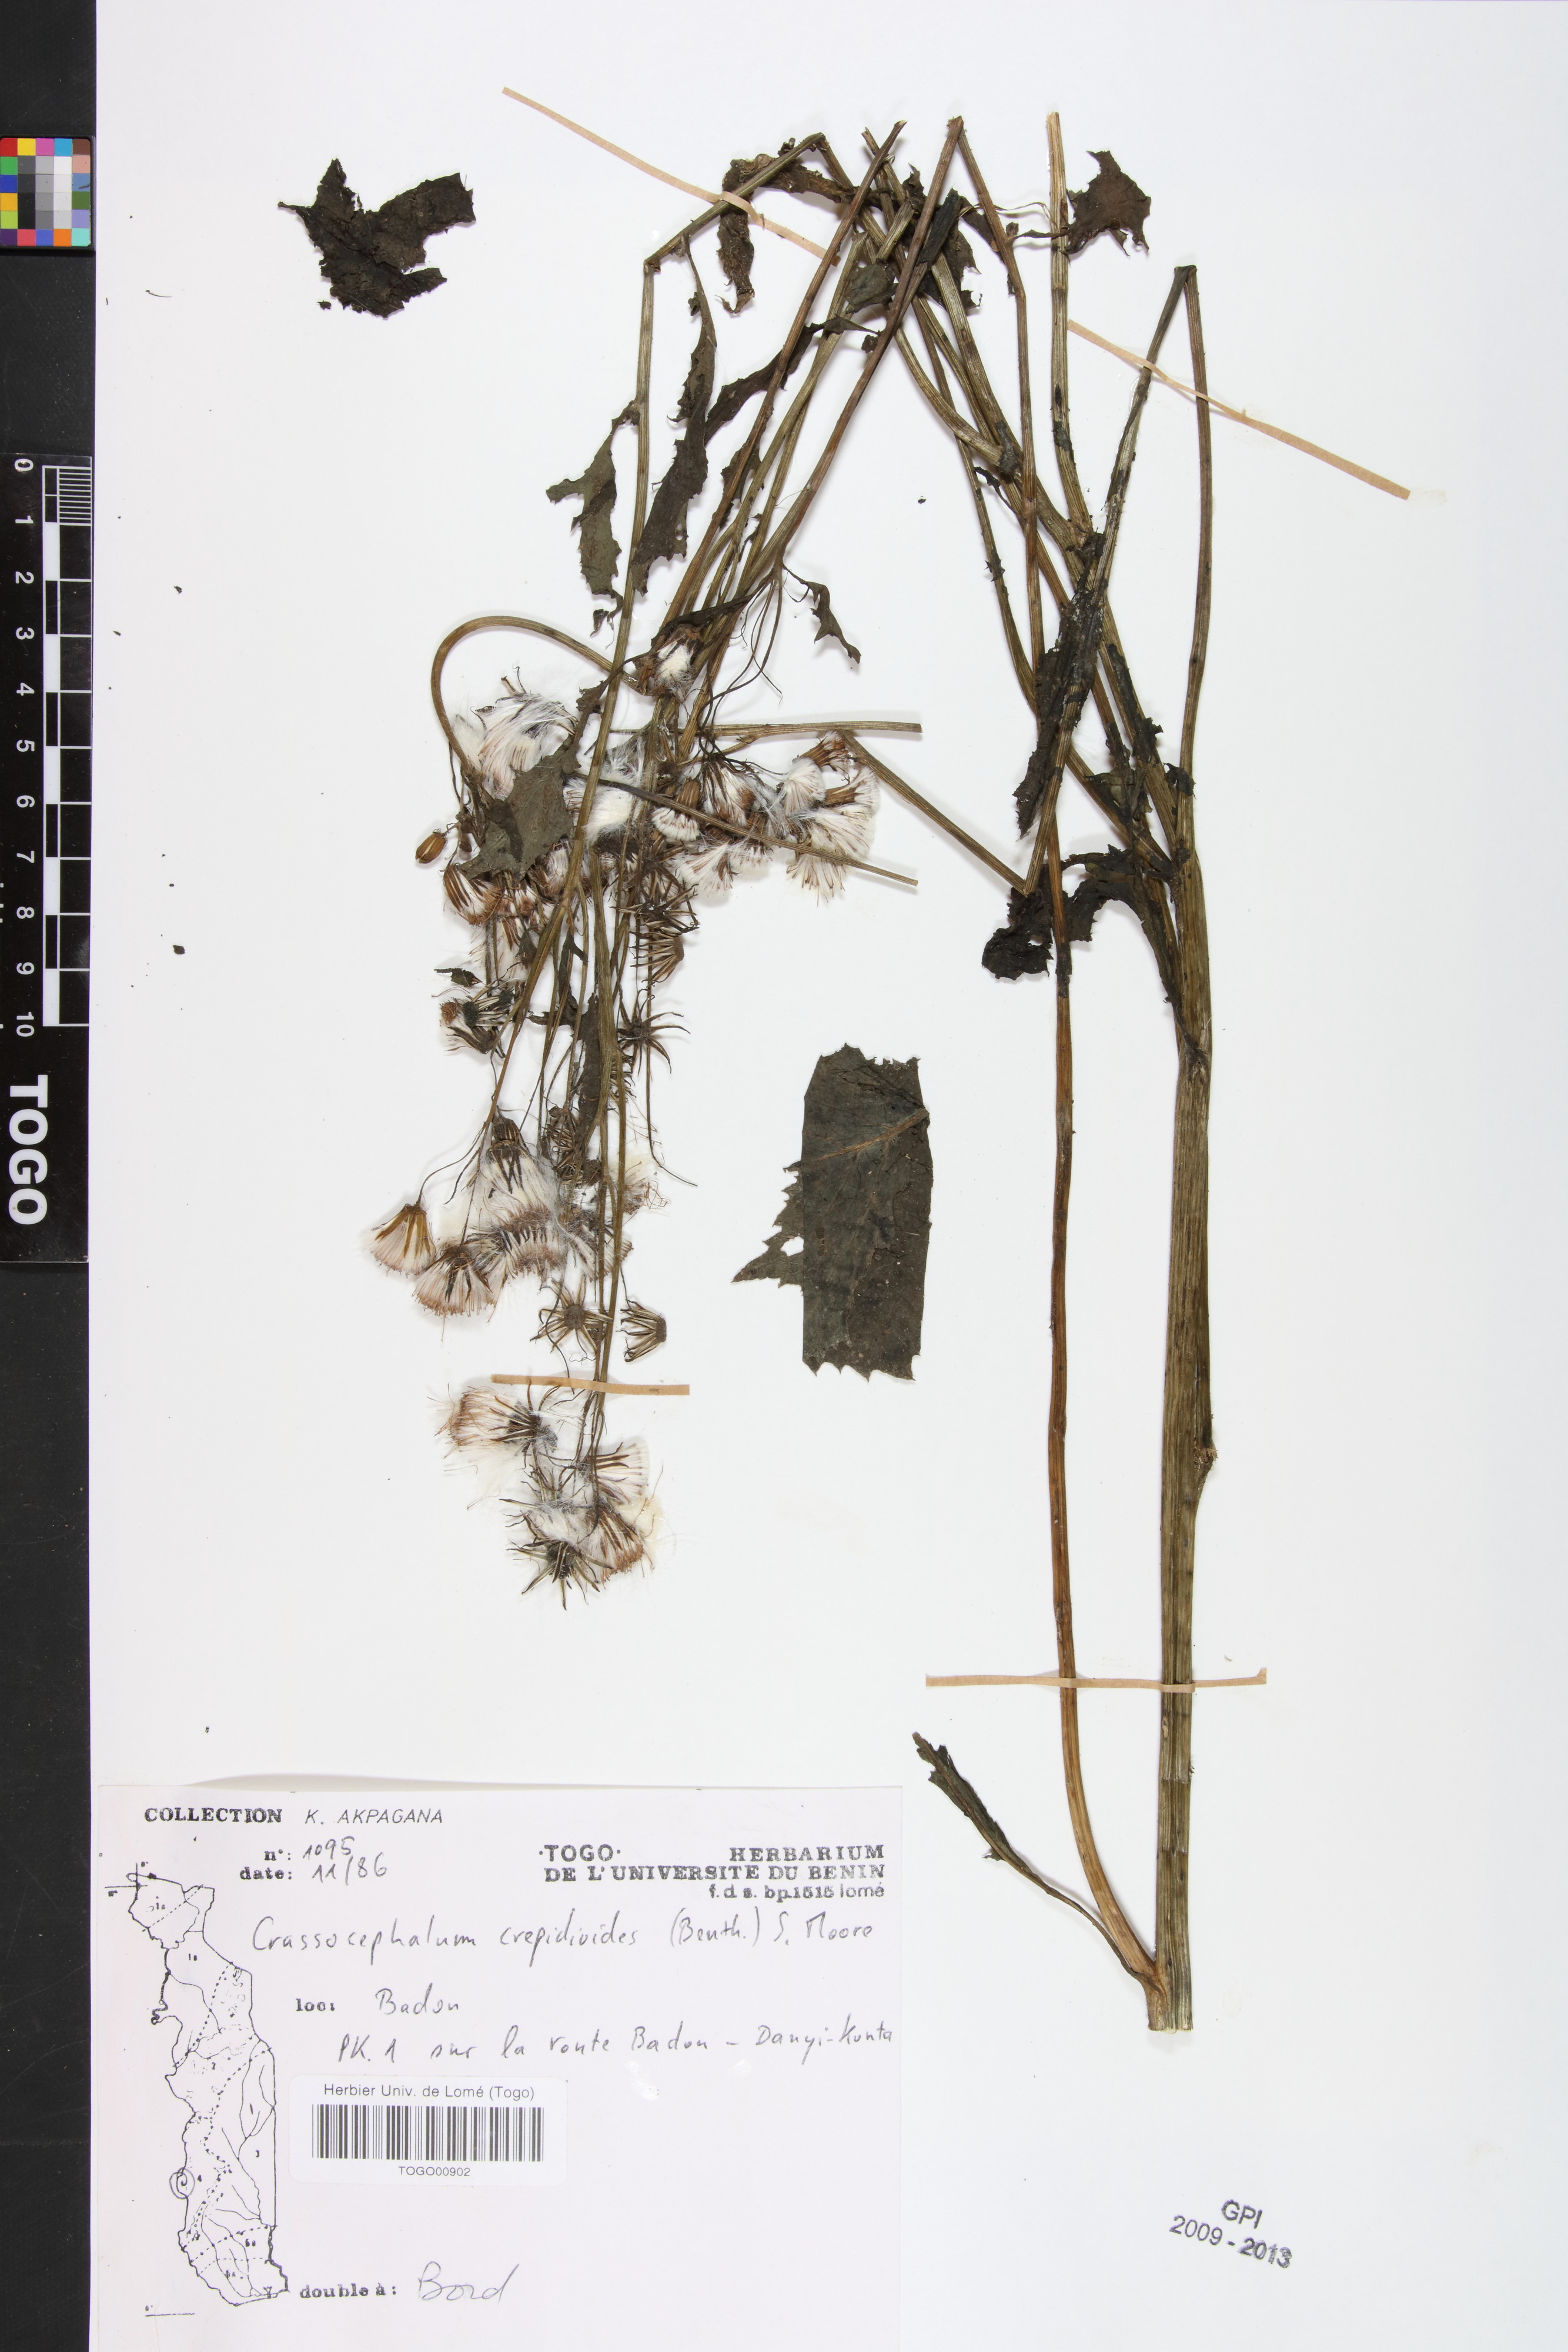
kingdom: Plantae
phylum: Tracheophyta
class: Magnoliopsida
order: Asterales
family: Asteraceae
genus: Crassocephalum
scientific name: Crassocephalum crepidioides
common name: Redflower ragleaf
